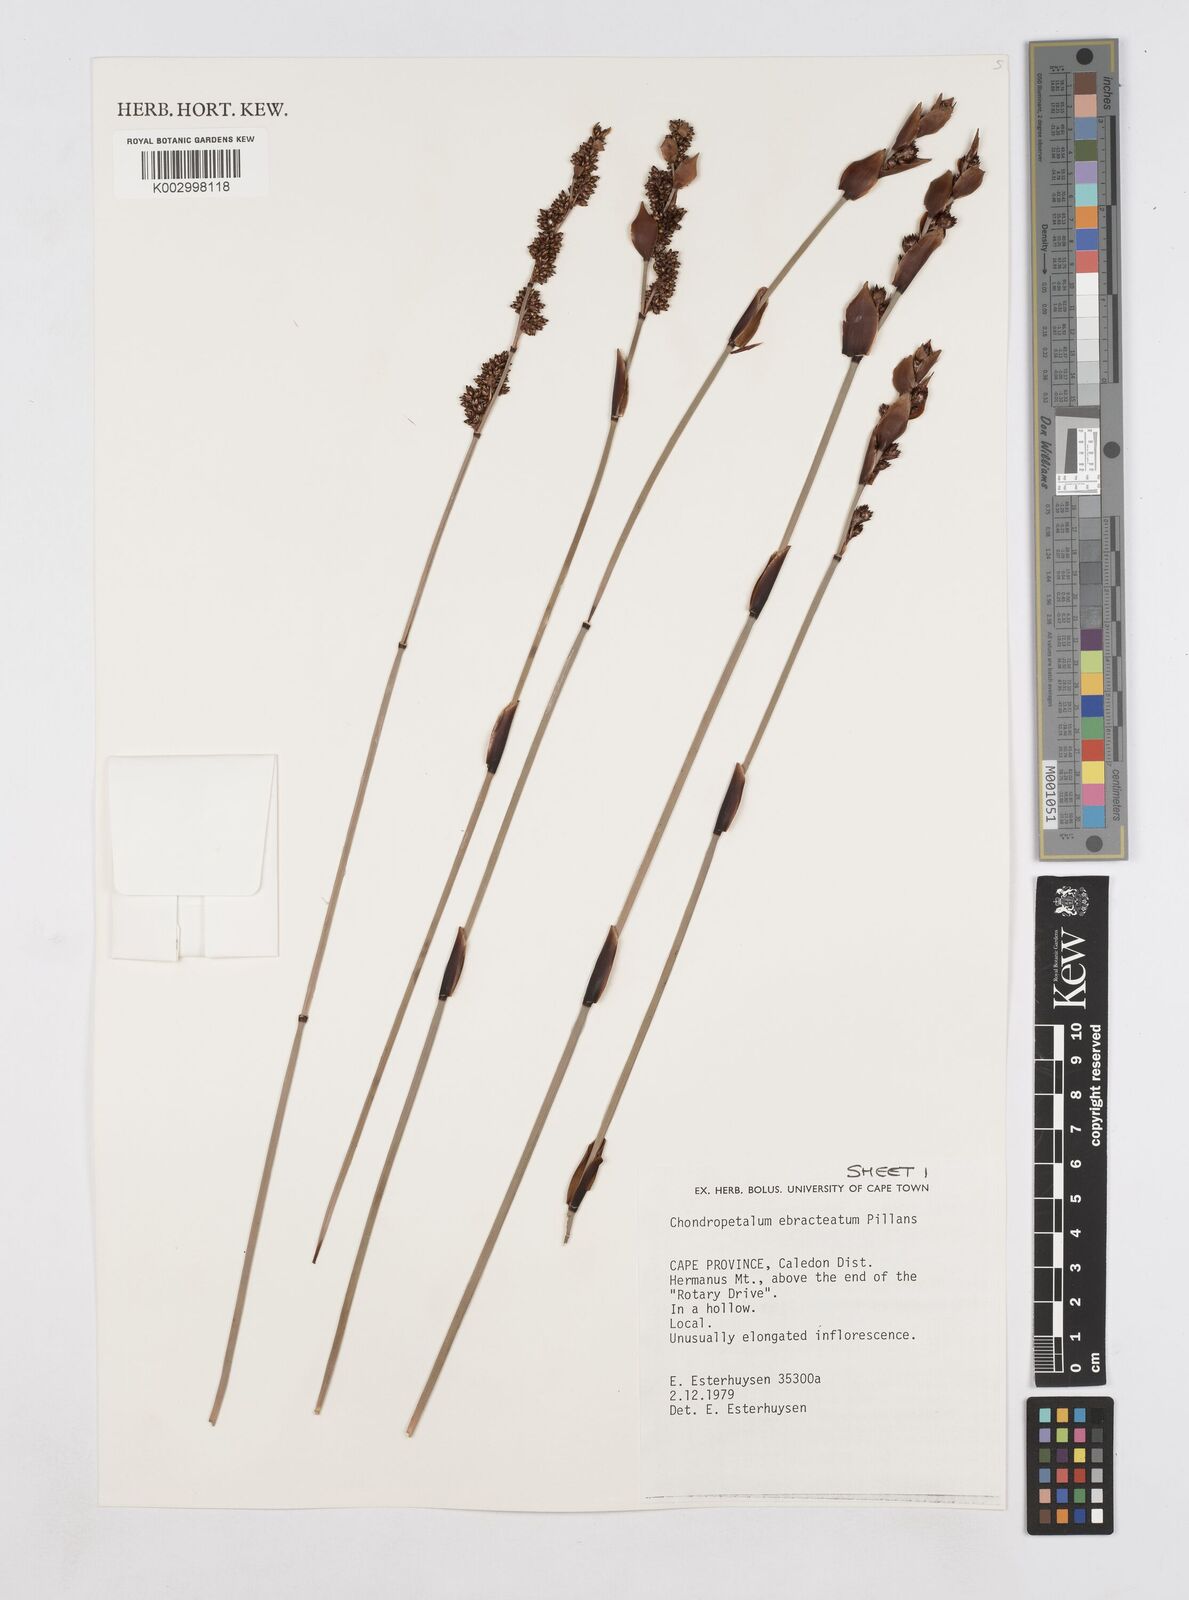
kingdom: Plantae
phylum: Tracheophyta
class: Liliopsida
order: Poales
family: Restionaceae
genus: Elegia
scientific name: Elegia ebracteata
